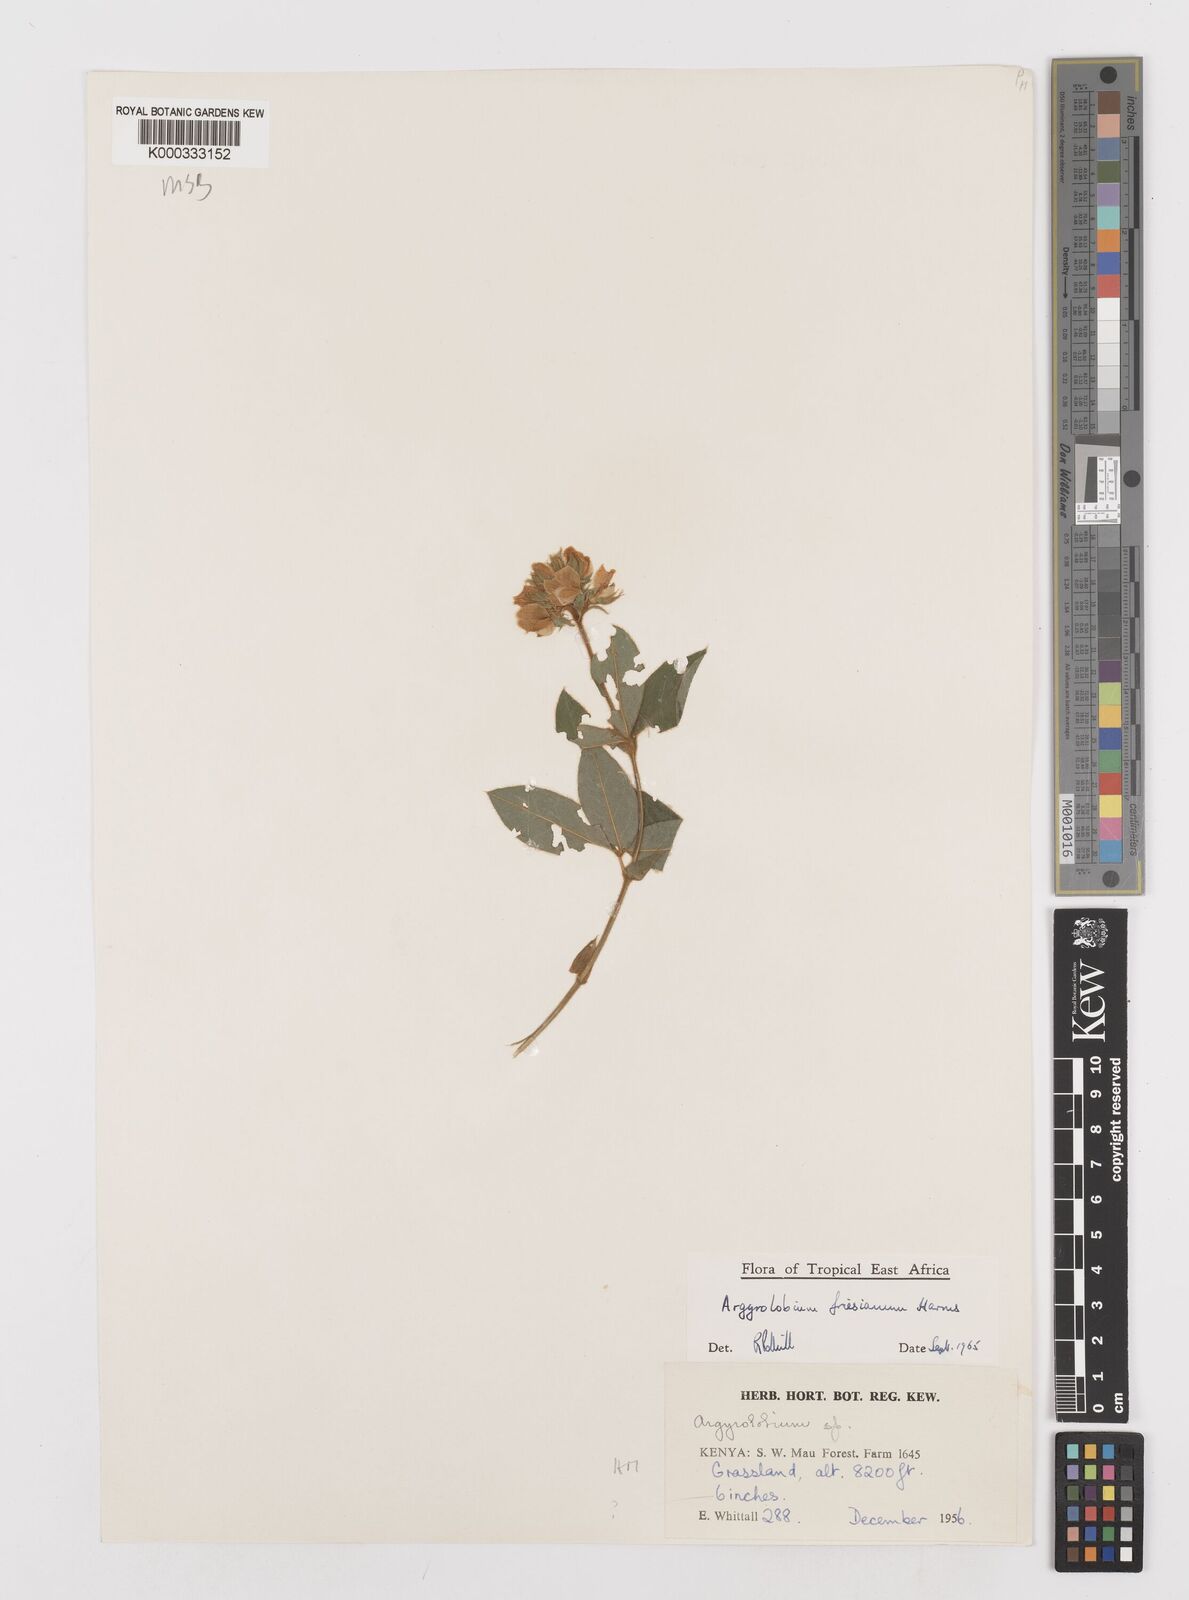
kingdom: Plantae
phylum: Tracheophyta
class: Magnoliopsida
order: Fabales
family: Fabaceae
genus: Argyrolobium
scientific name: Argyrolobium friesianum
